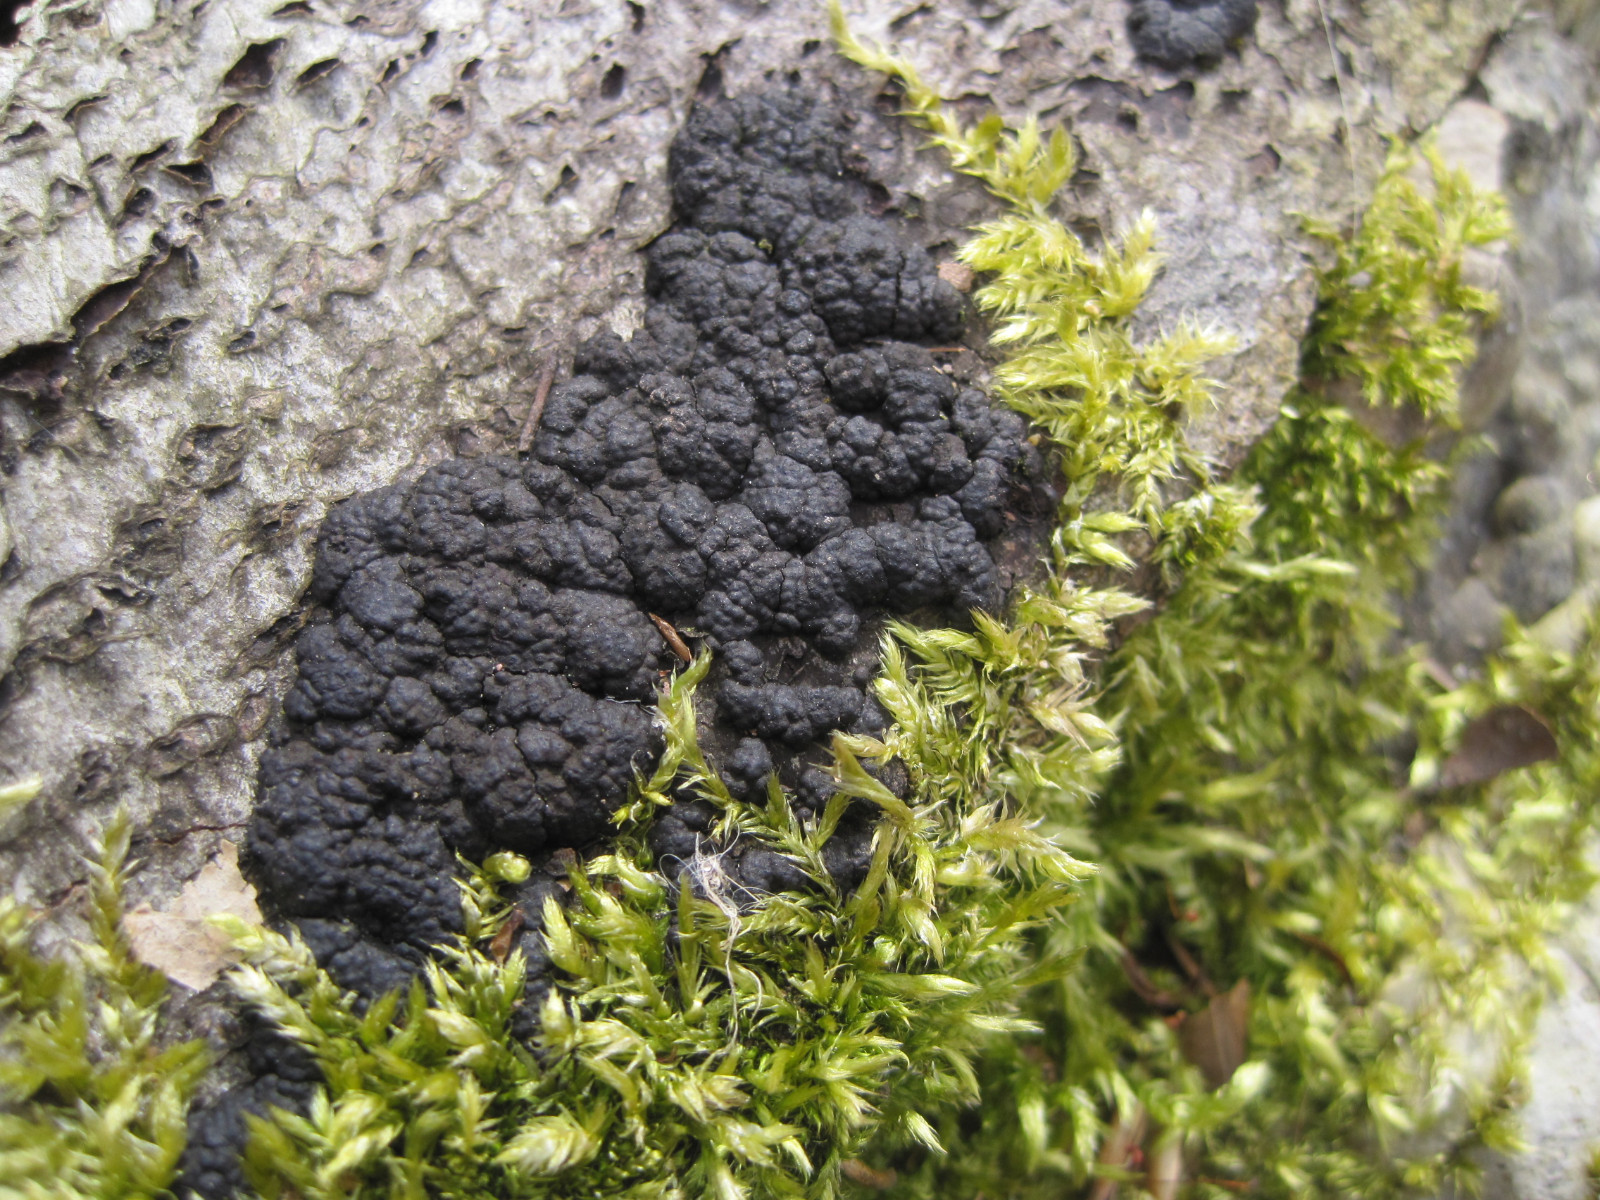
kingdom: Fungi
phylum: Ascomycota
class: Sordariomycetes
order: Xylariales
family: Hypoxylaceae
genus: Jackrogersella
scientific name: Jackrogersella cohaerens
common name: sammenflydende kulbær
